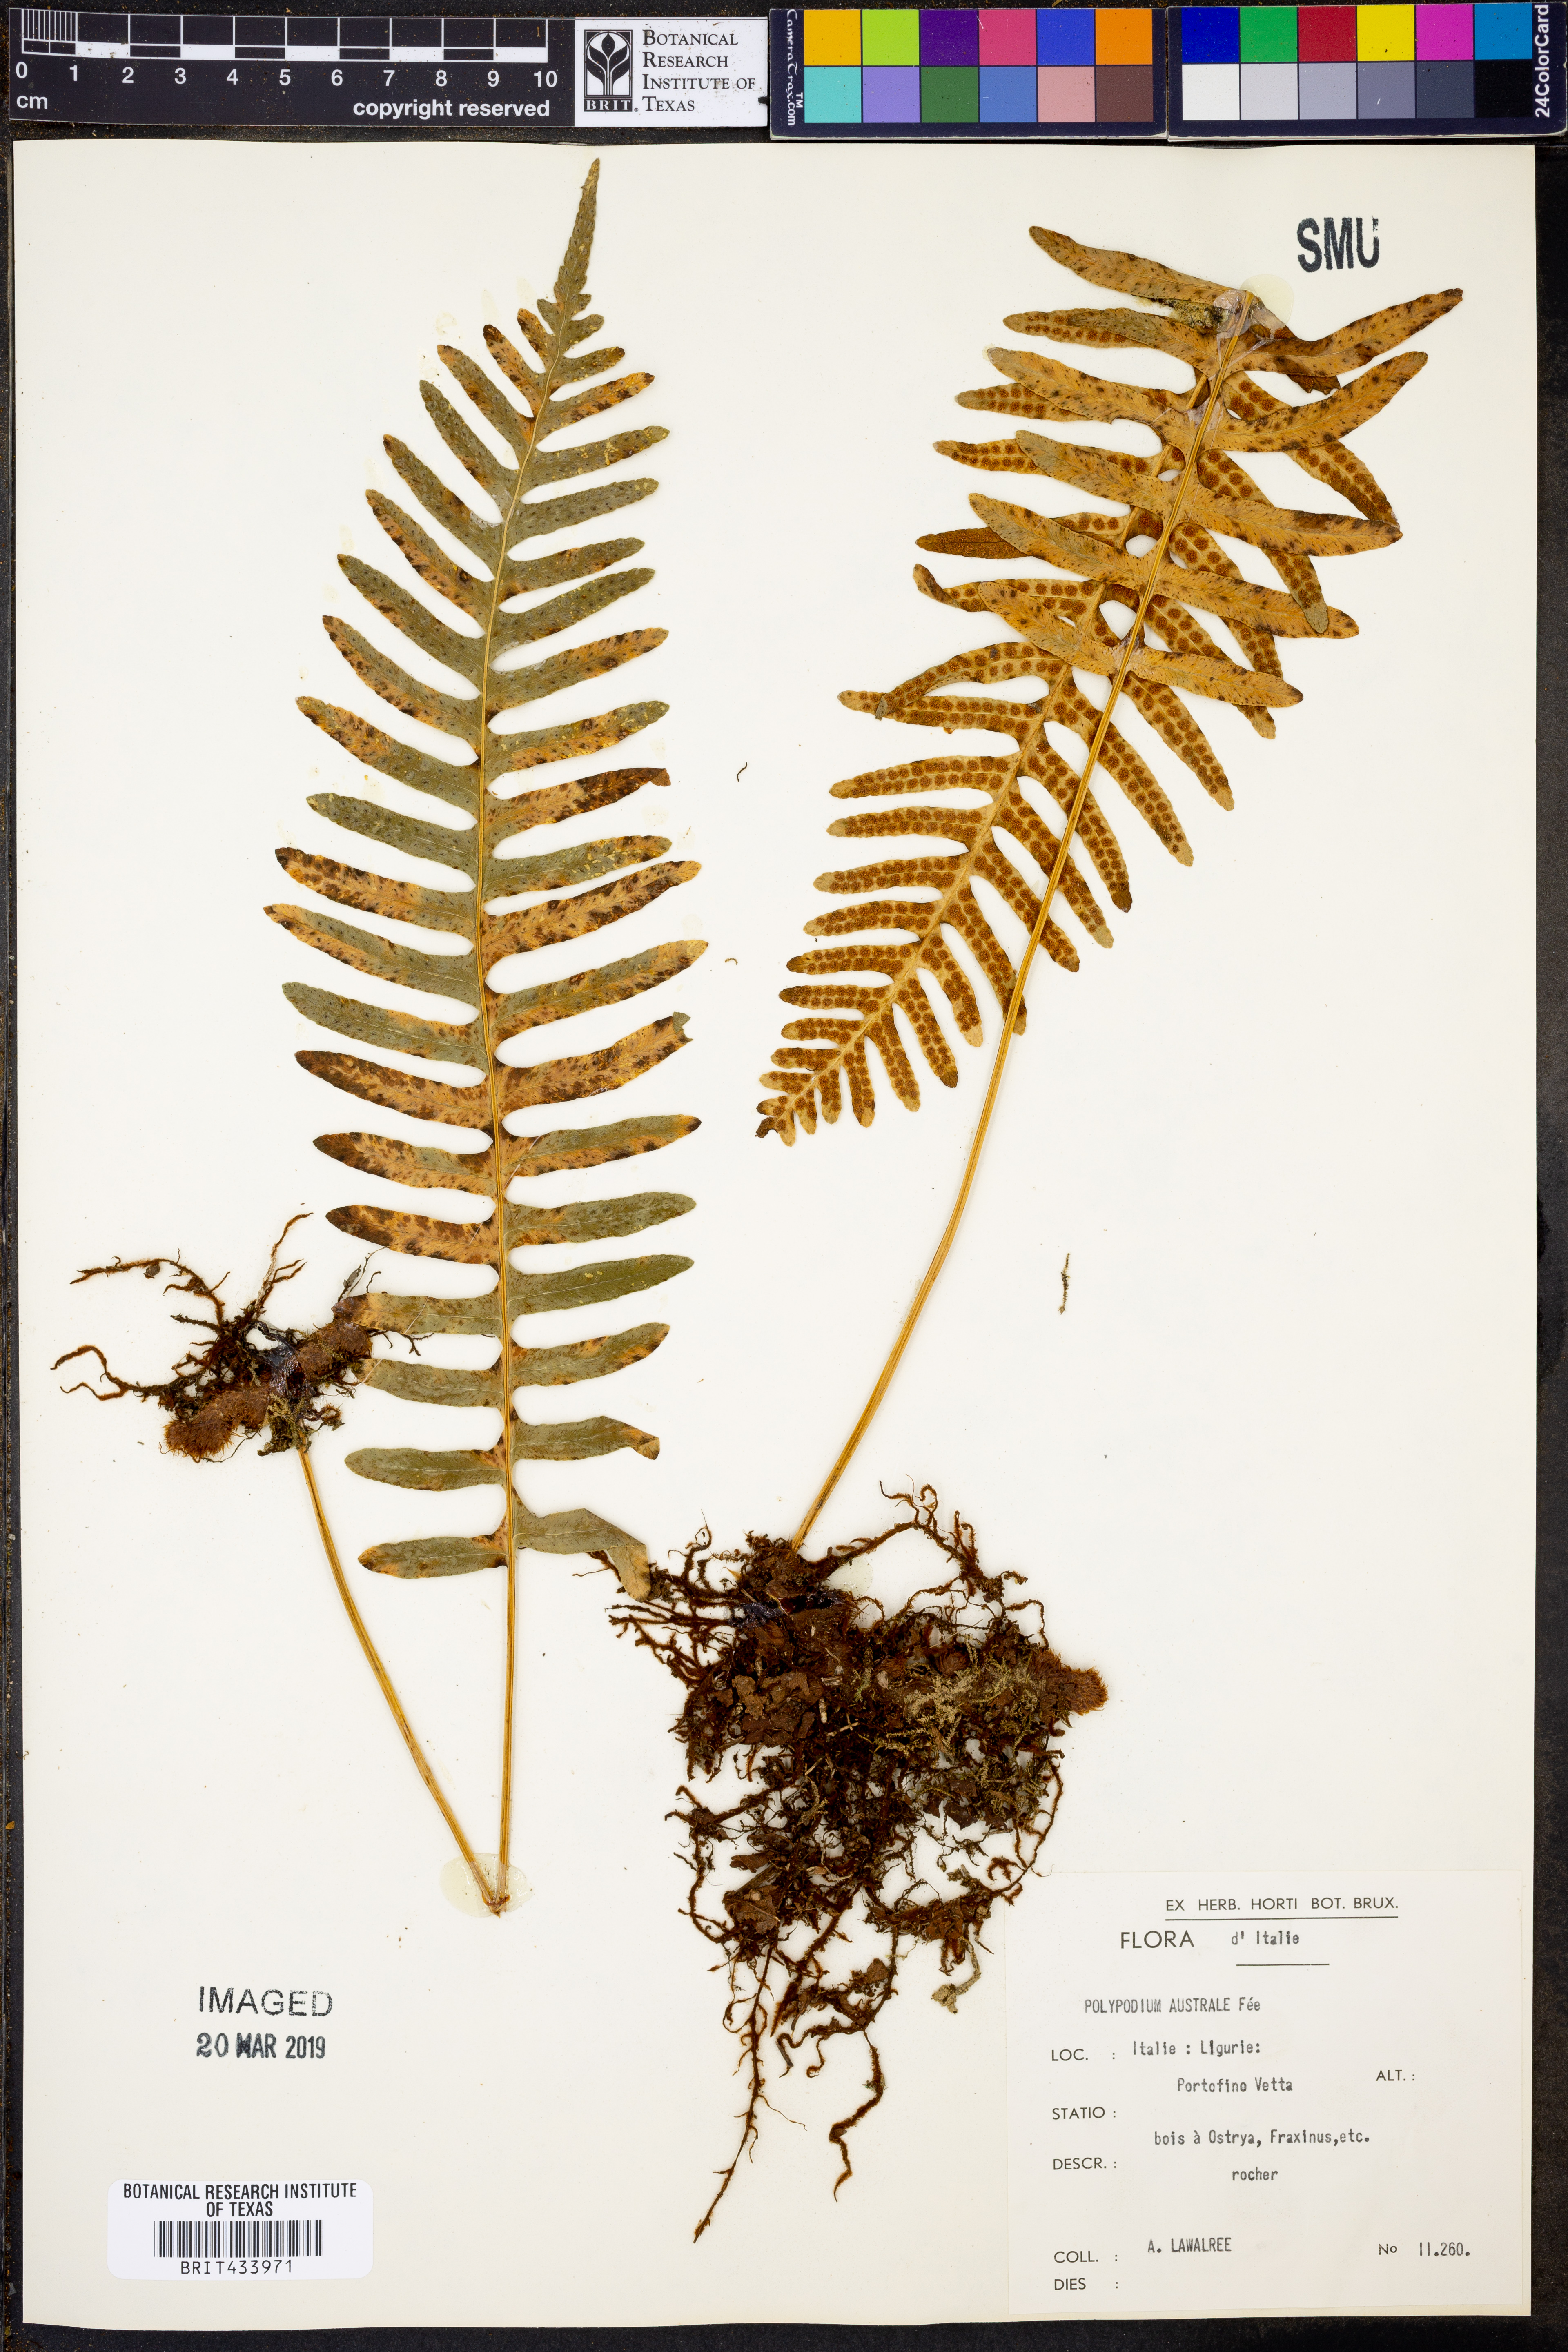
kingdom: Plantae
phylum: Tracheophyta
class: Polypodiopsida
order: Polypodiales
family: Polypodiaceae
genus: Polypodium
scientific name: Polypodium cambricum
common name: Southern polypody
